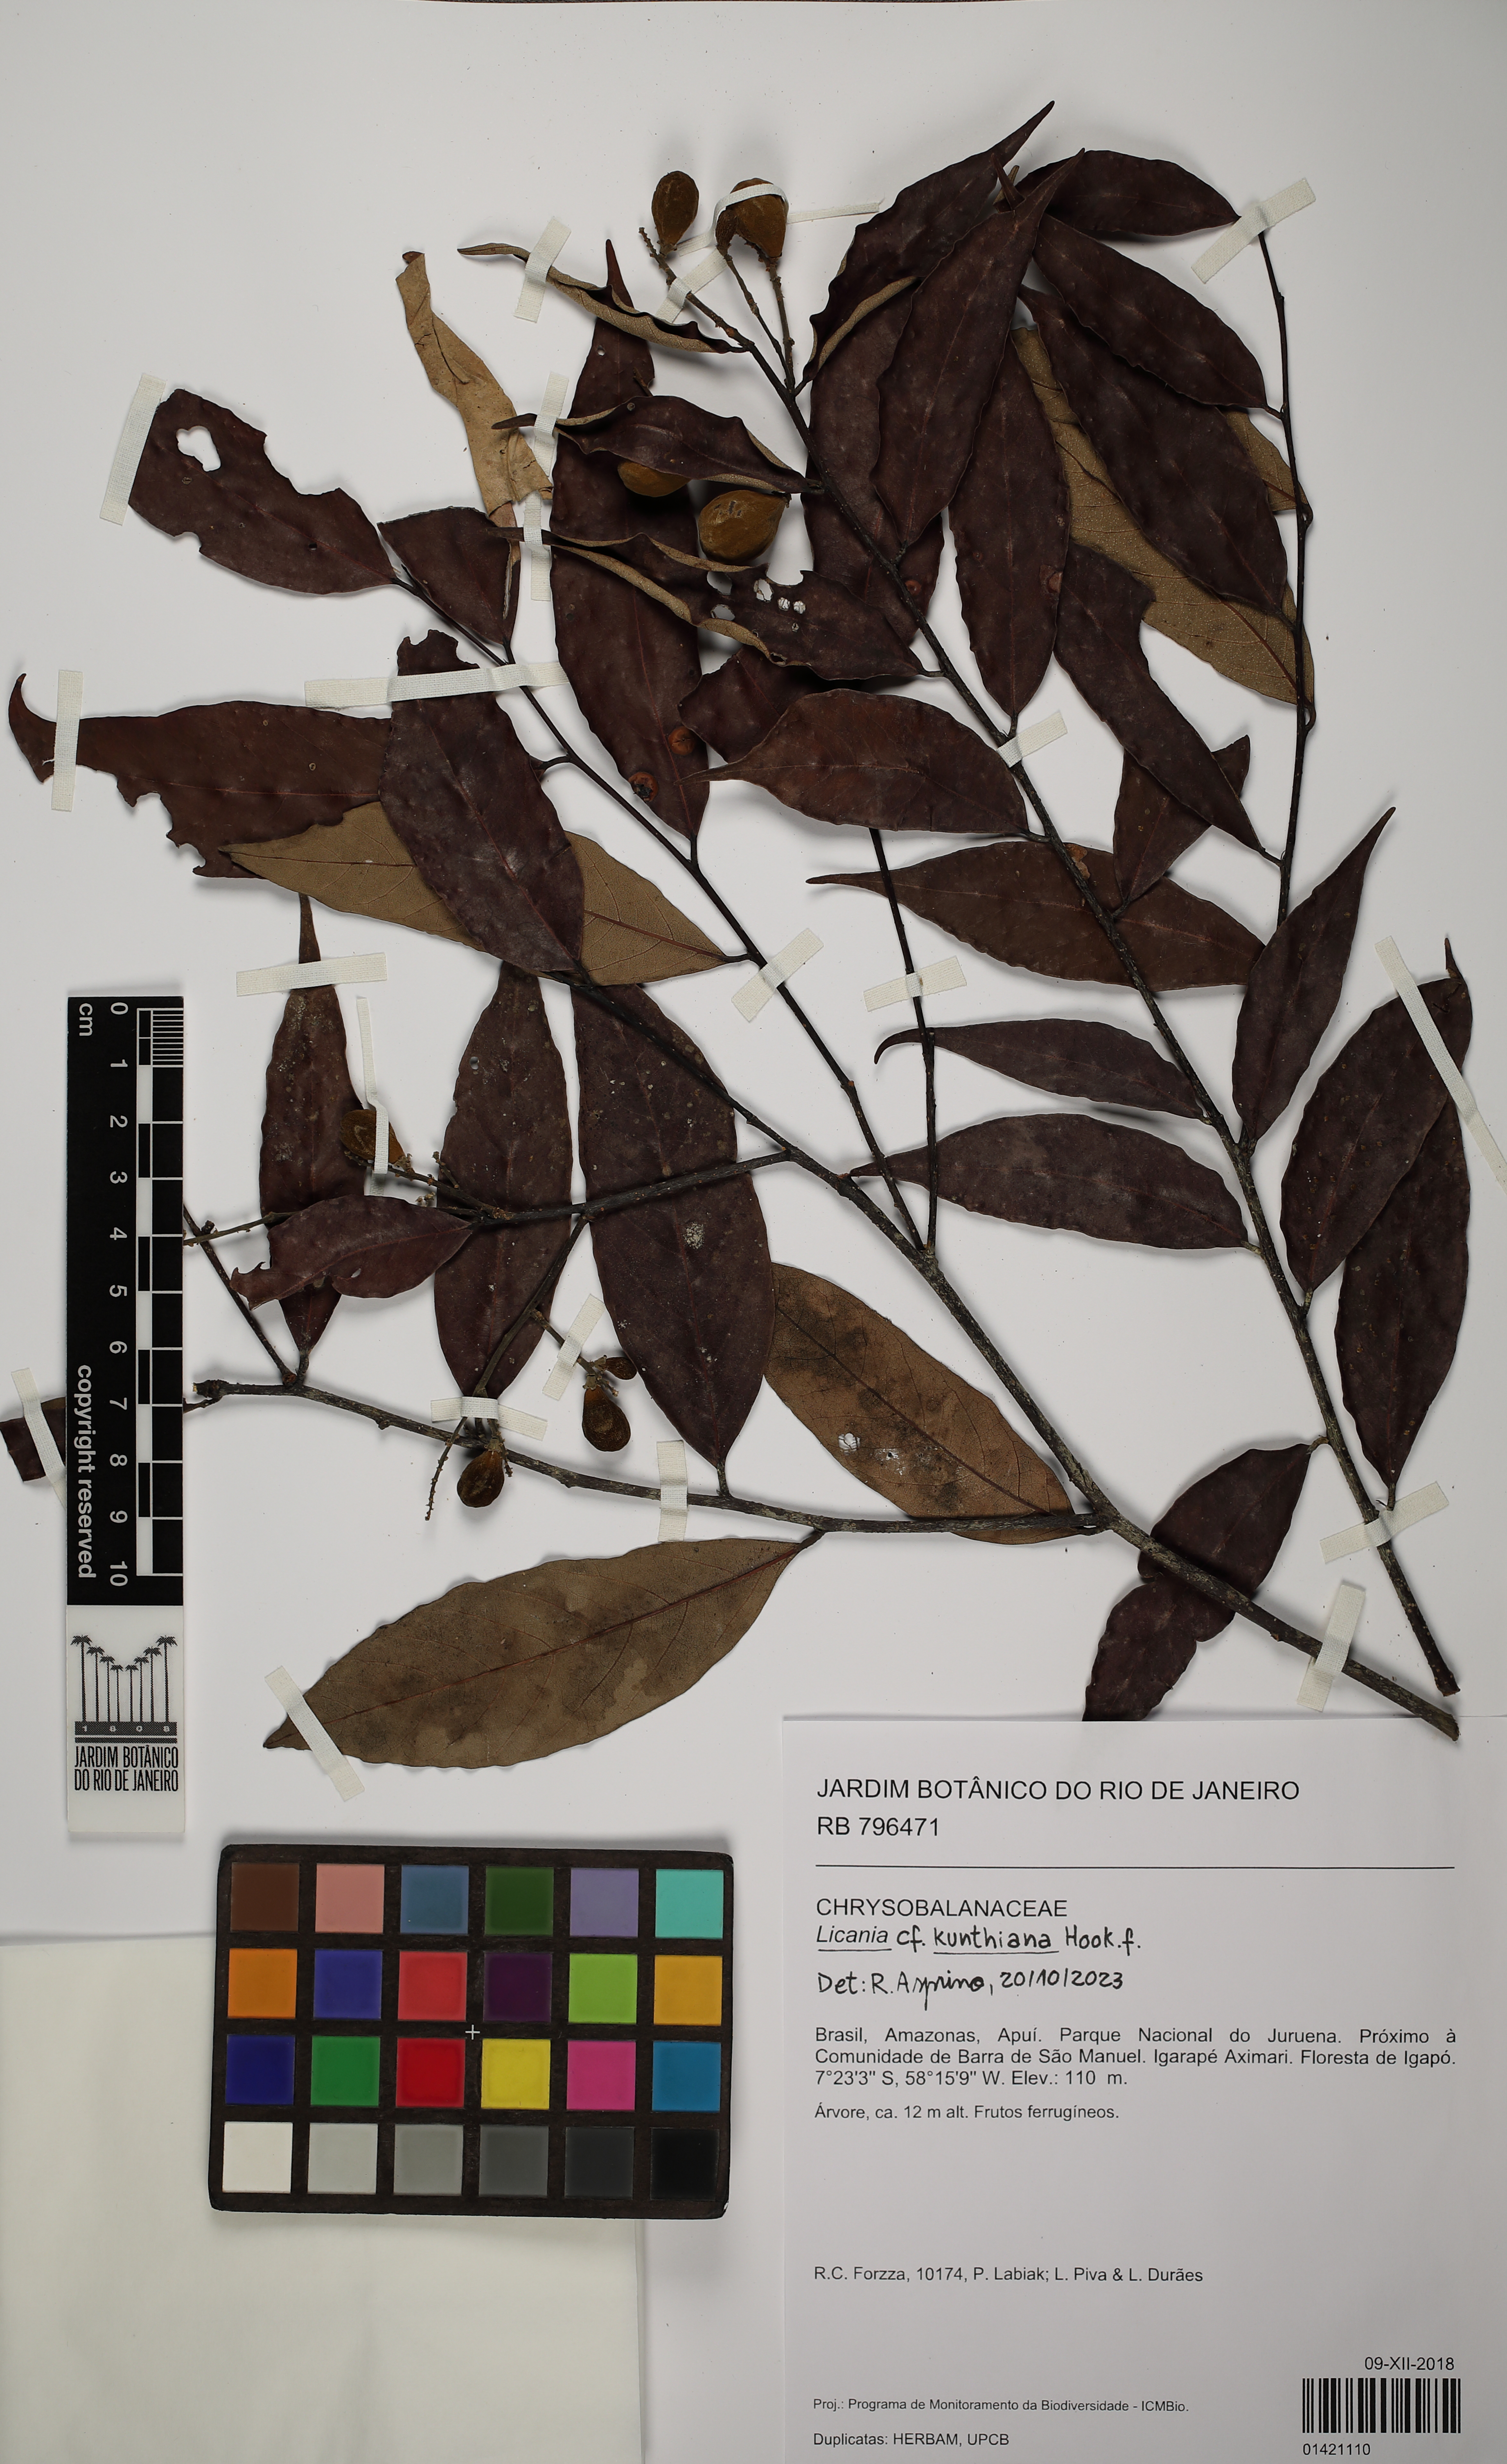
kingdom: Plantae
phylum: Tracheophyta
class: Magnoliopsida
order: Malpighiales
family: Chrysobalanaceae
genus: Licania
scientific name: Licania
